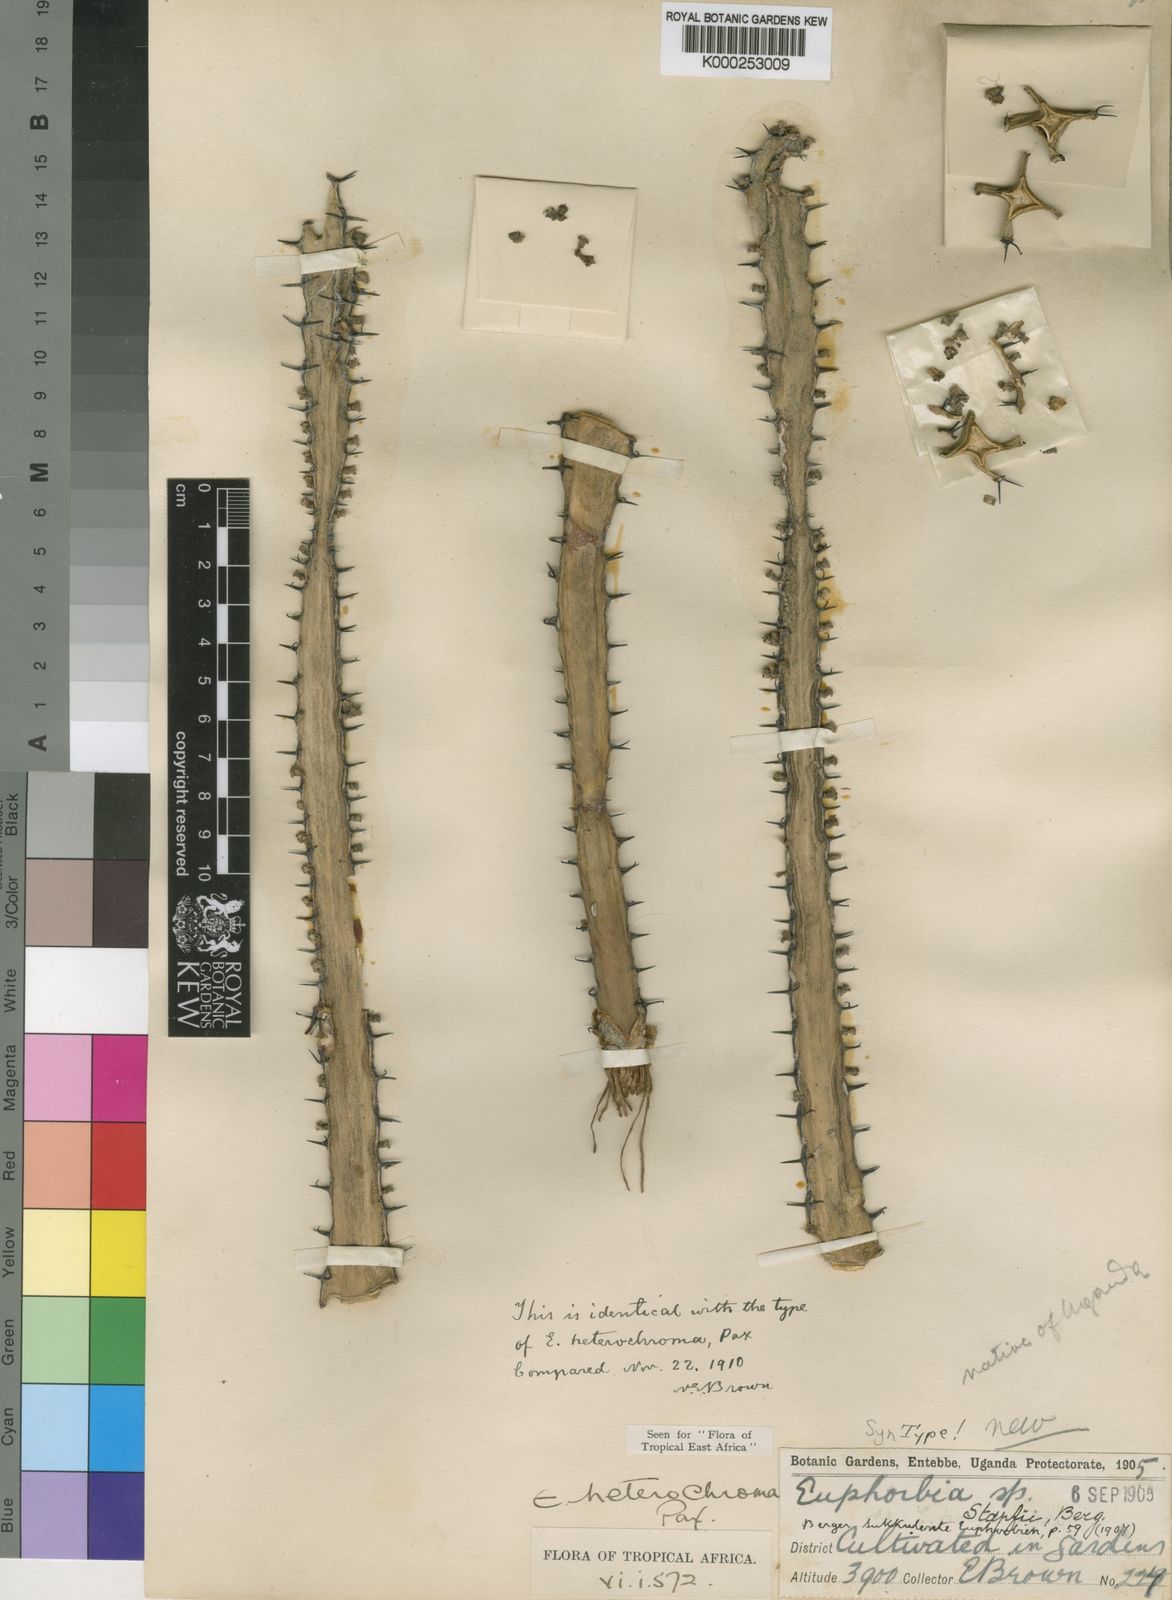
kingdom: Plantae
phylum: Tracheophyta
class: Magnoliopsida
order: Malpighiales
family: Euphorbiaceae
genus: Euphorbia
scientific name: Euphorbia stapfii
